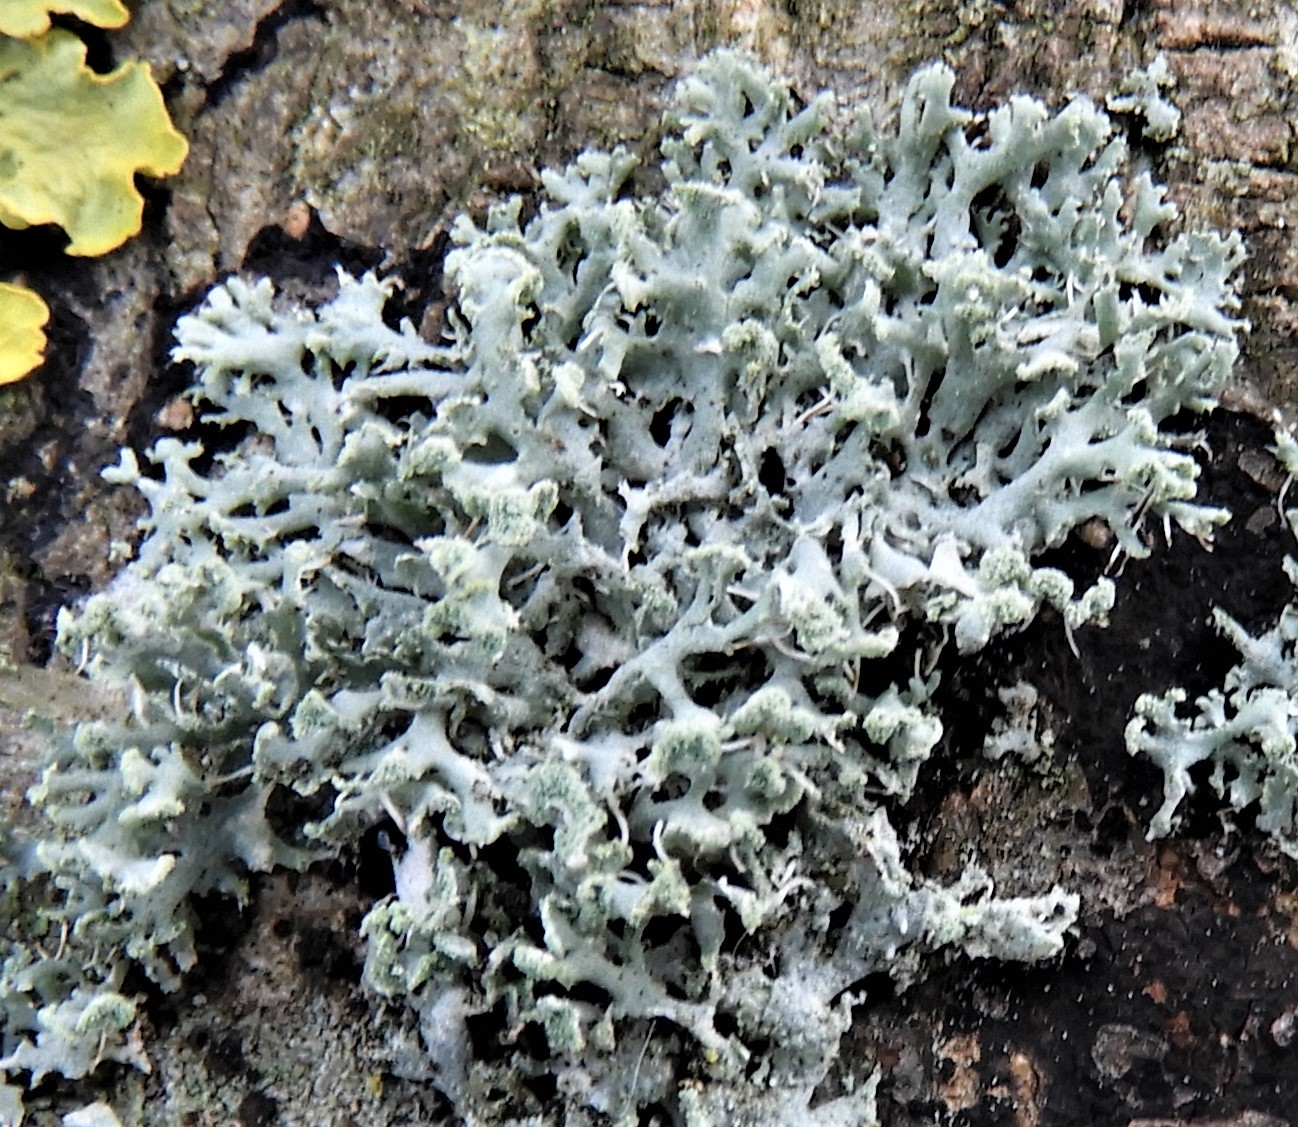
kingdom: Fungi
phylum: Ascomycota
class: Lecanoromycetes
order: Caliciales
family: Physciaceae
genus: Physcia
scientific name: Physcia tenella
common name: spæd rosetlav
